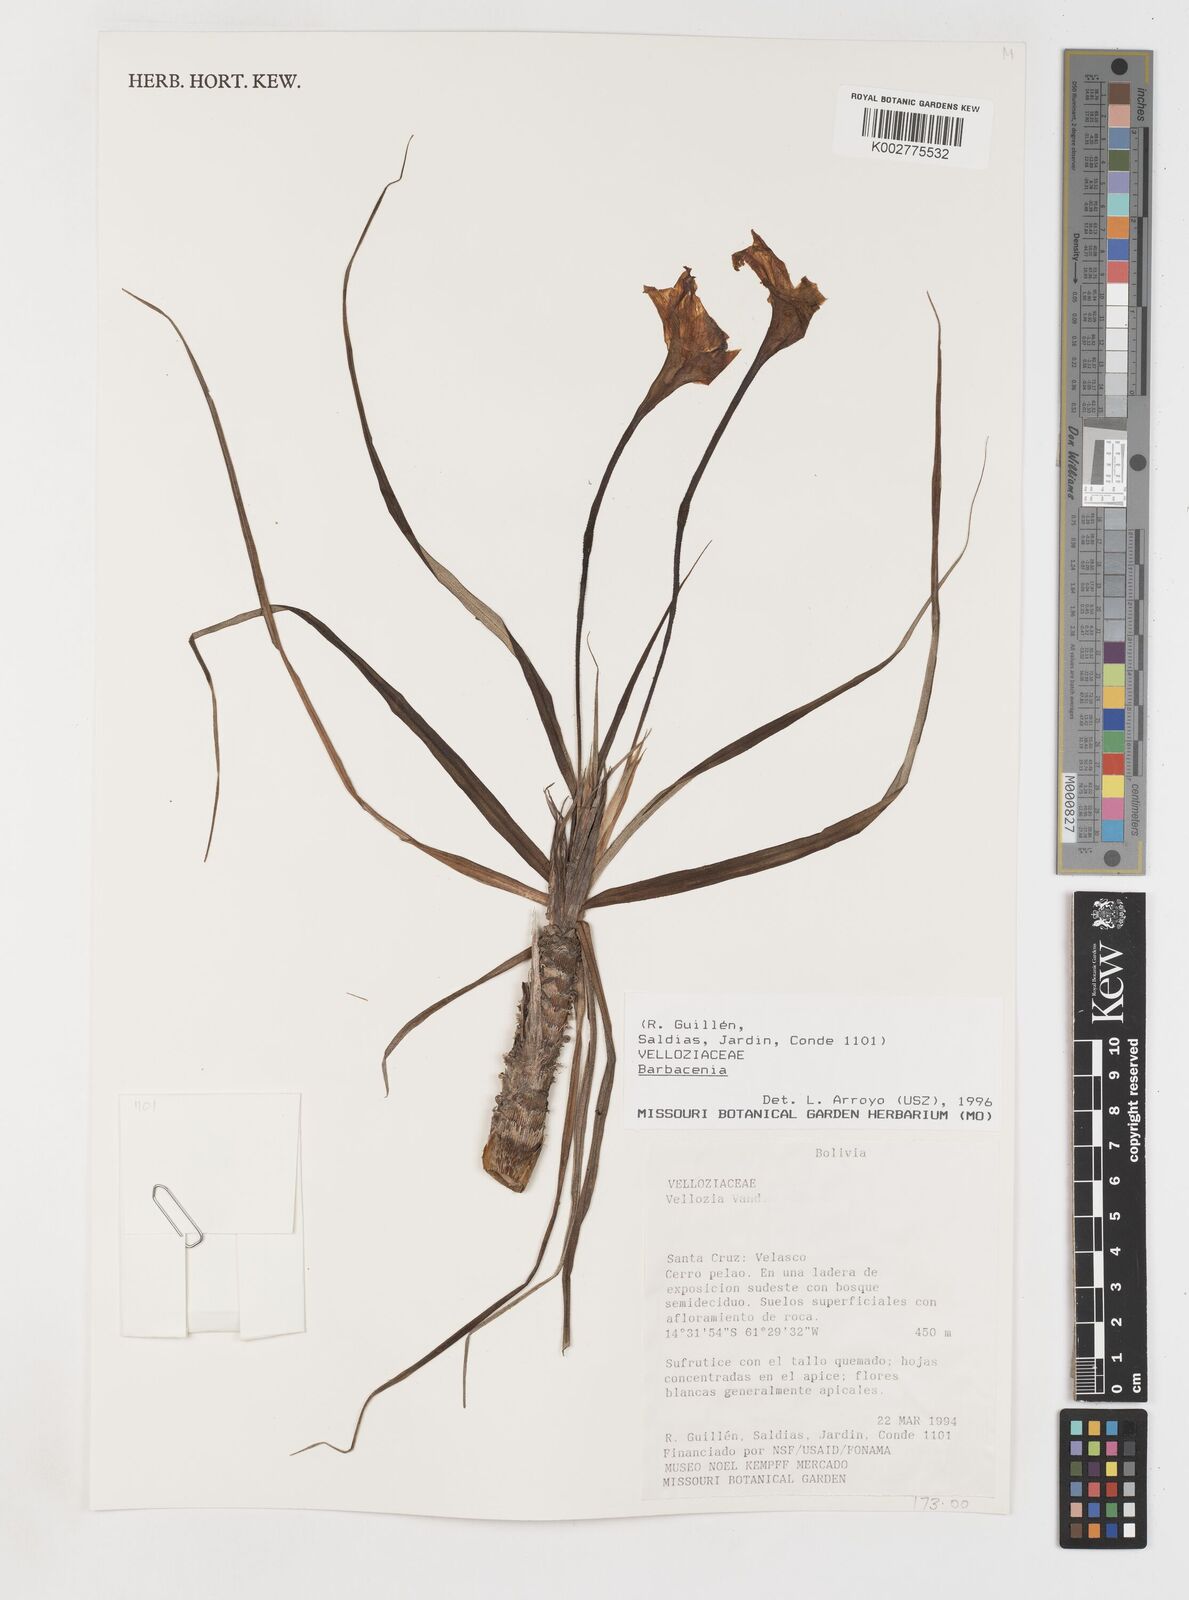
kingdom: Plantae
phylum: Tracheophyta
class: Liliopsida
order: Pandanales
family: Velloziaceae
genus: Vellozia
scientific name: Vellozia tubiflora
